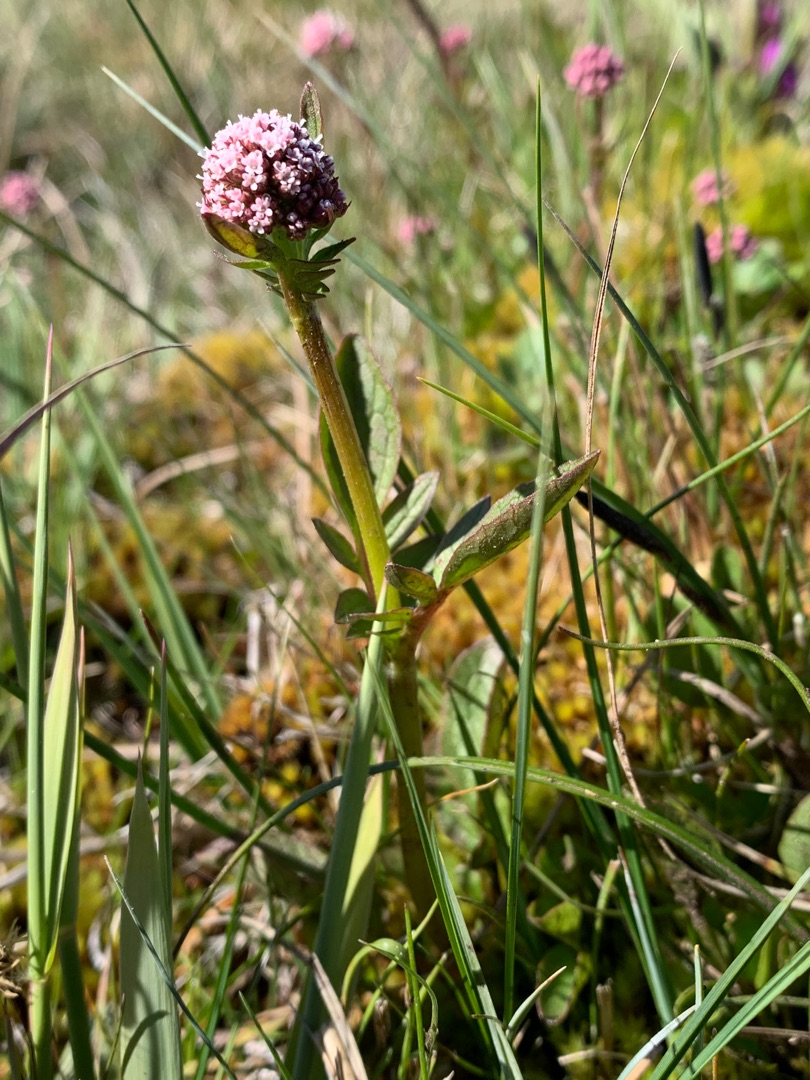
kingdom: Plantae
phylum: Tracheophyta
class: Magnoliopsida
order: Dipsacales
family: Caprifoliaceae
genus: Valeriana
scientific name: Valeriana dioica
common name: Tvebo baldrian
